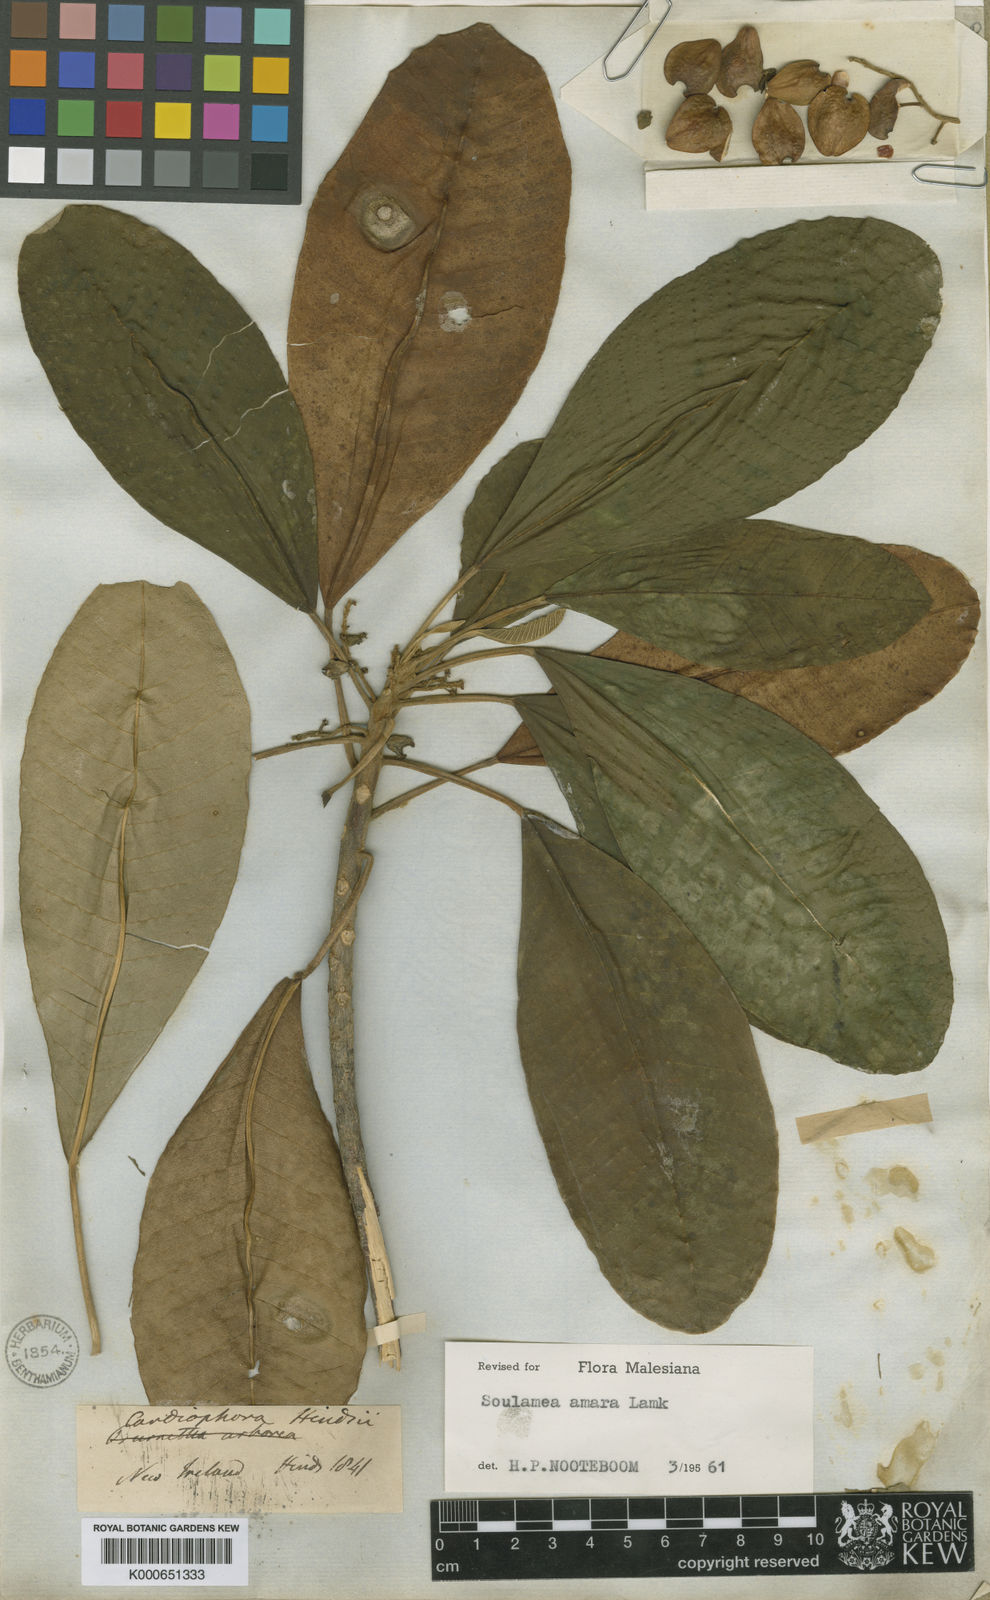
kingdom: Plantae
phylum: Tracheophyta
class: Magnoliopsida
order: Sapindales
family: Simaroubaceae
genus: Soulamea
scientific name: Soulamea amara
